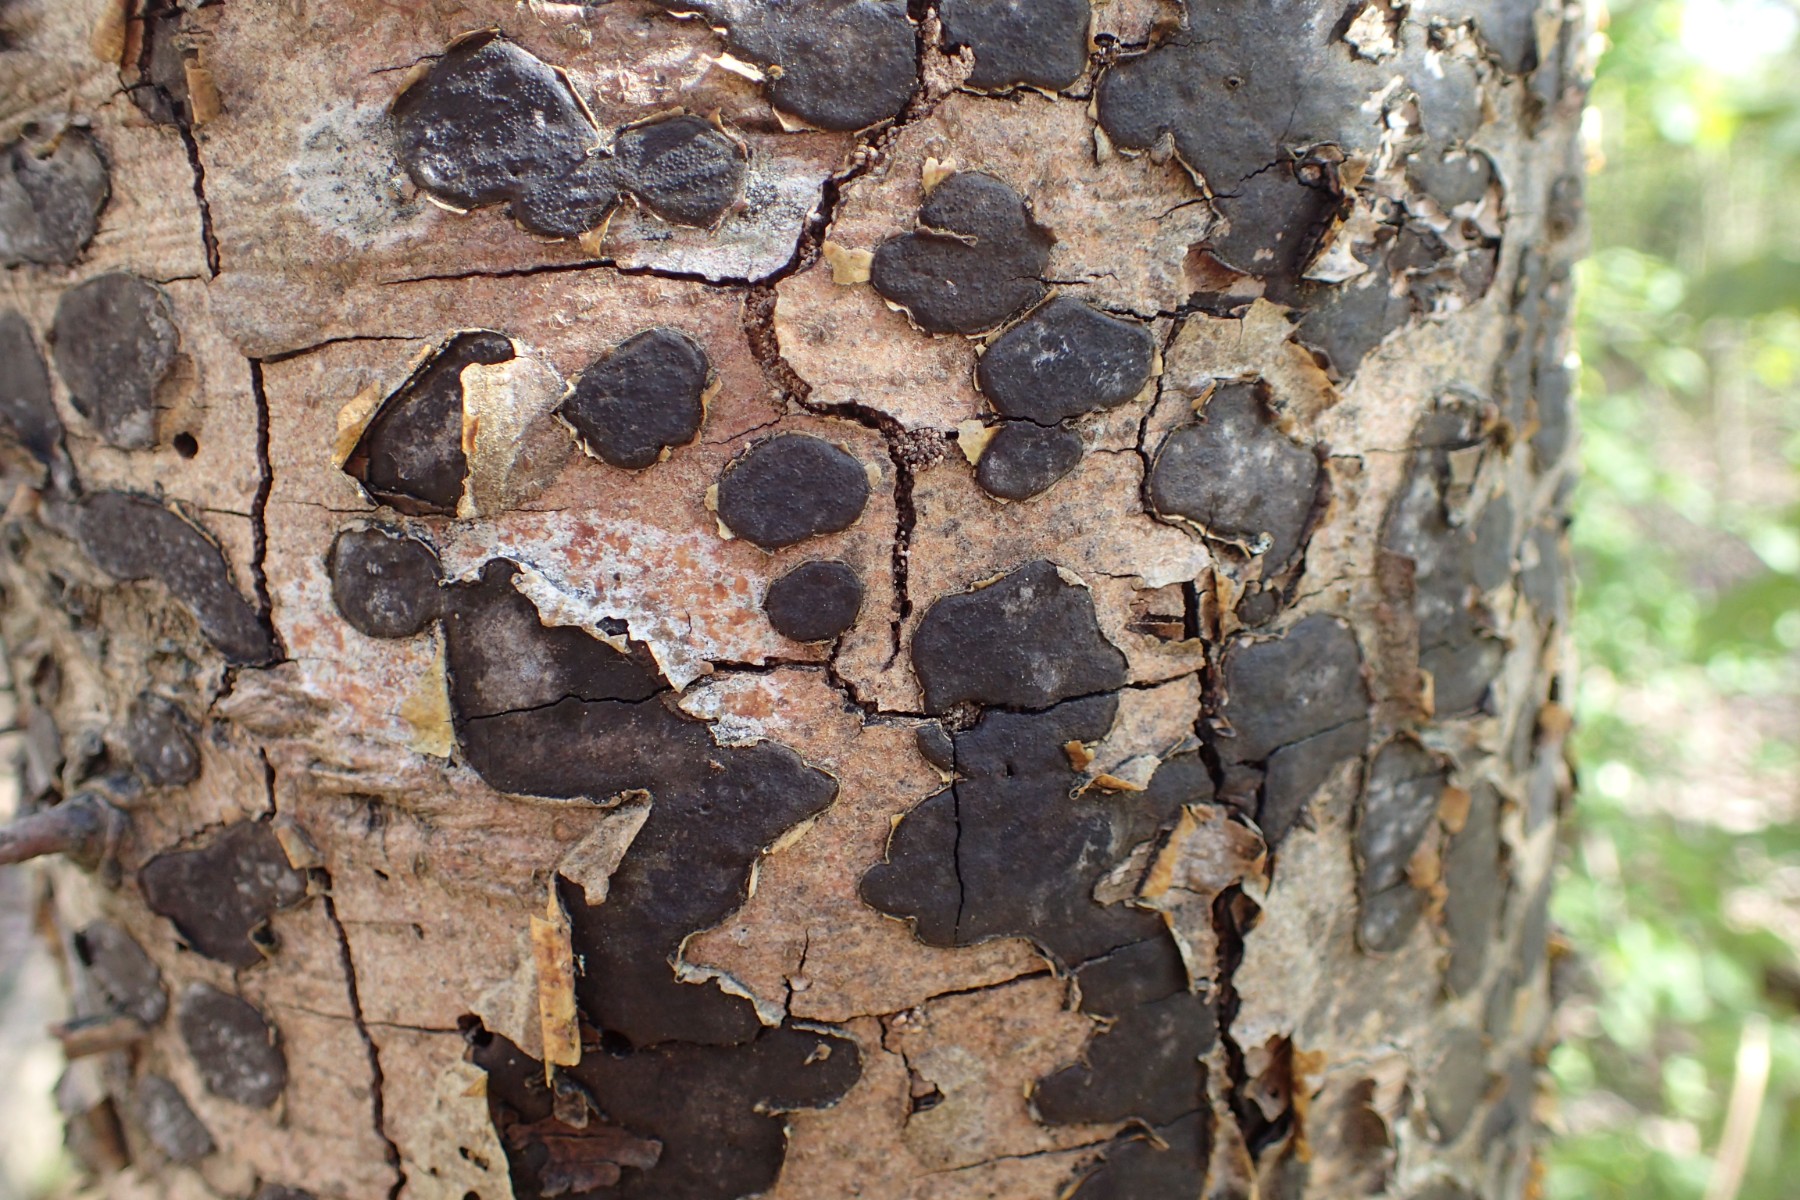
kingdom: Fungi
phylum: Ascomycota
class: Sordariomycetes
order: Xylariales
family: Graphostromataceae
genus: Biscogniauxia
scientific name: Biscogniauxia nummularia
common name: bøge-kulskive
